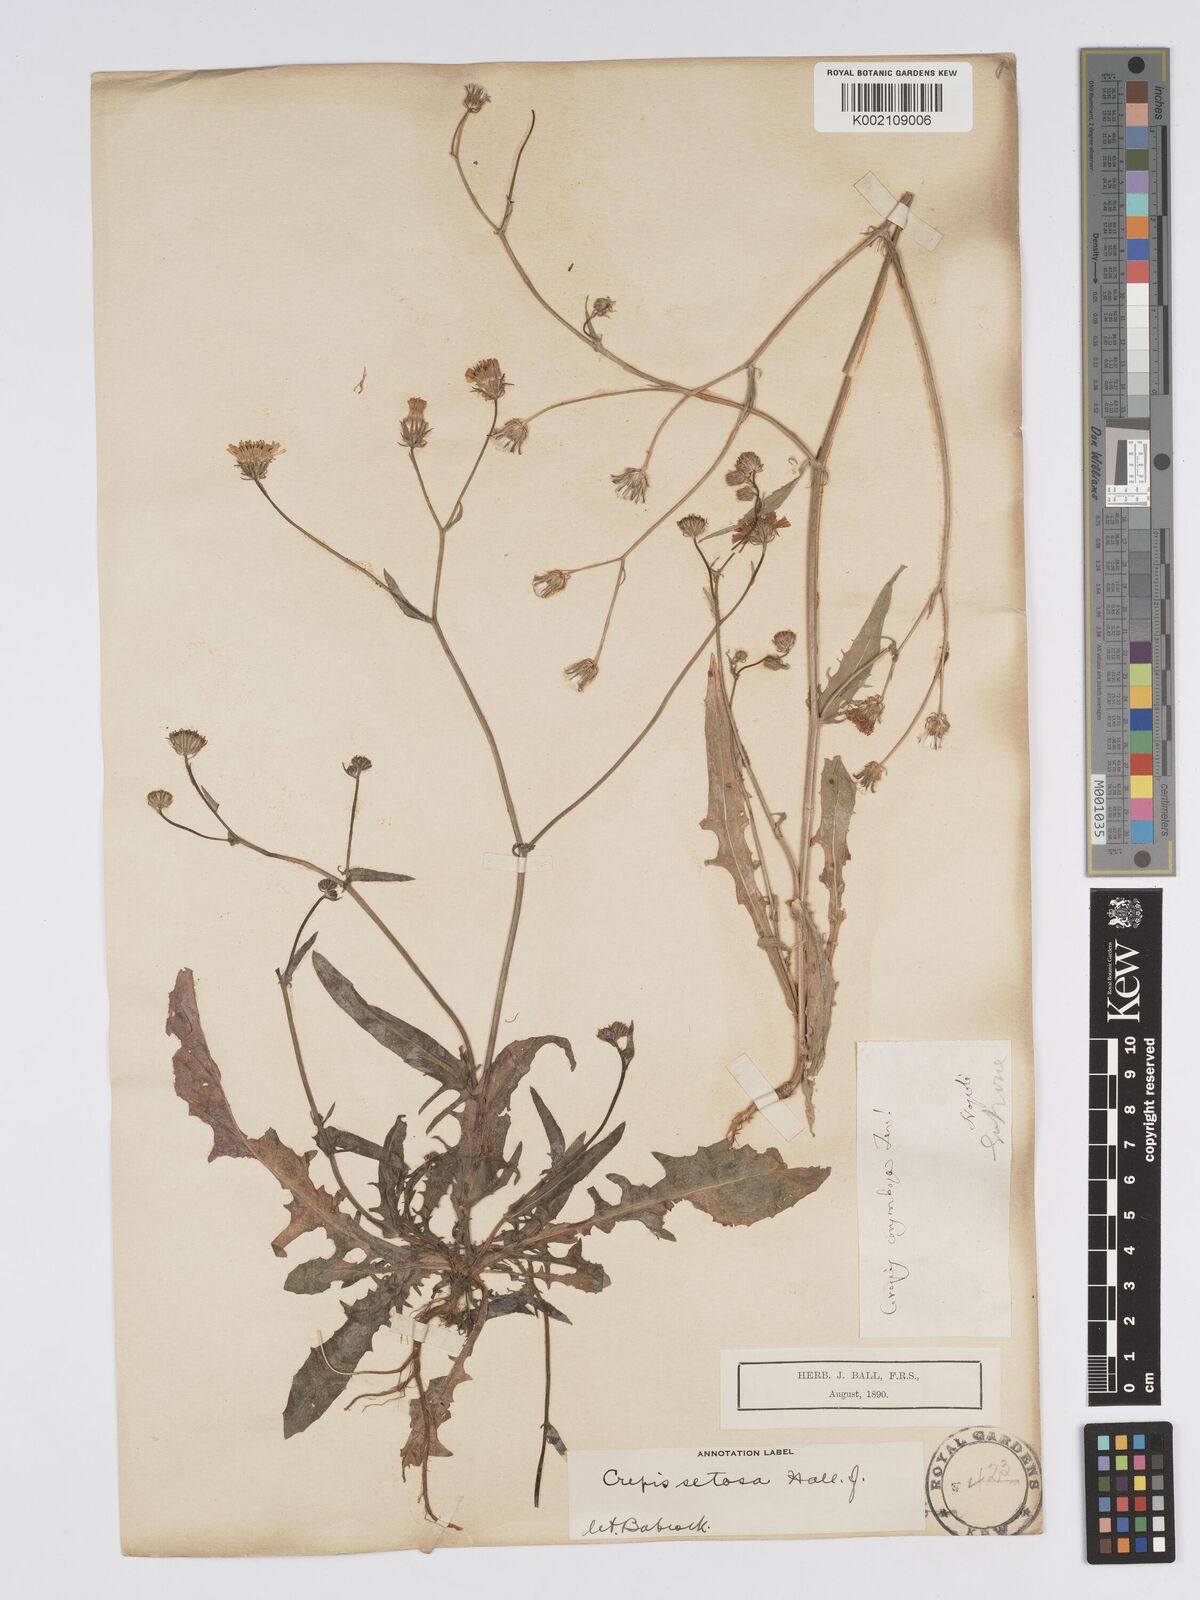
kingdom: Plantae
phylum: Tracheophyta
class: Magnoliopsida
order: Asterales
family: Asteraceae
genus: Crepis
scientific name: Crepis setosa
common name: Bristly hawk's-beard
